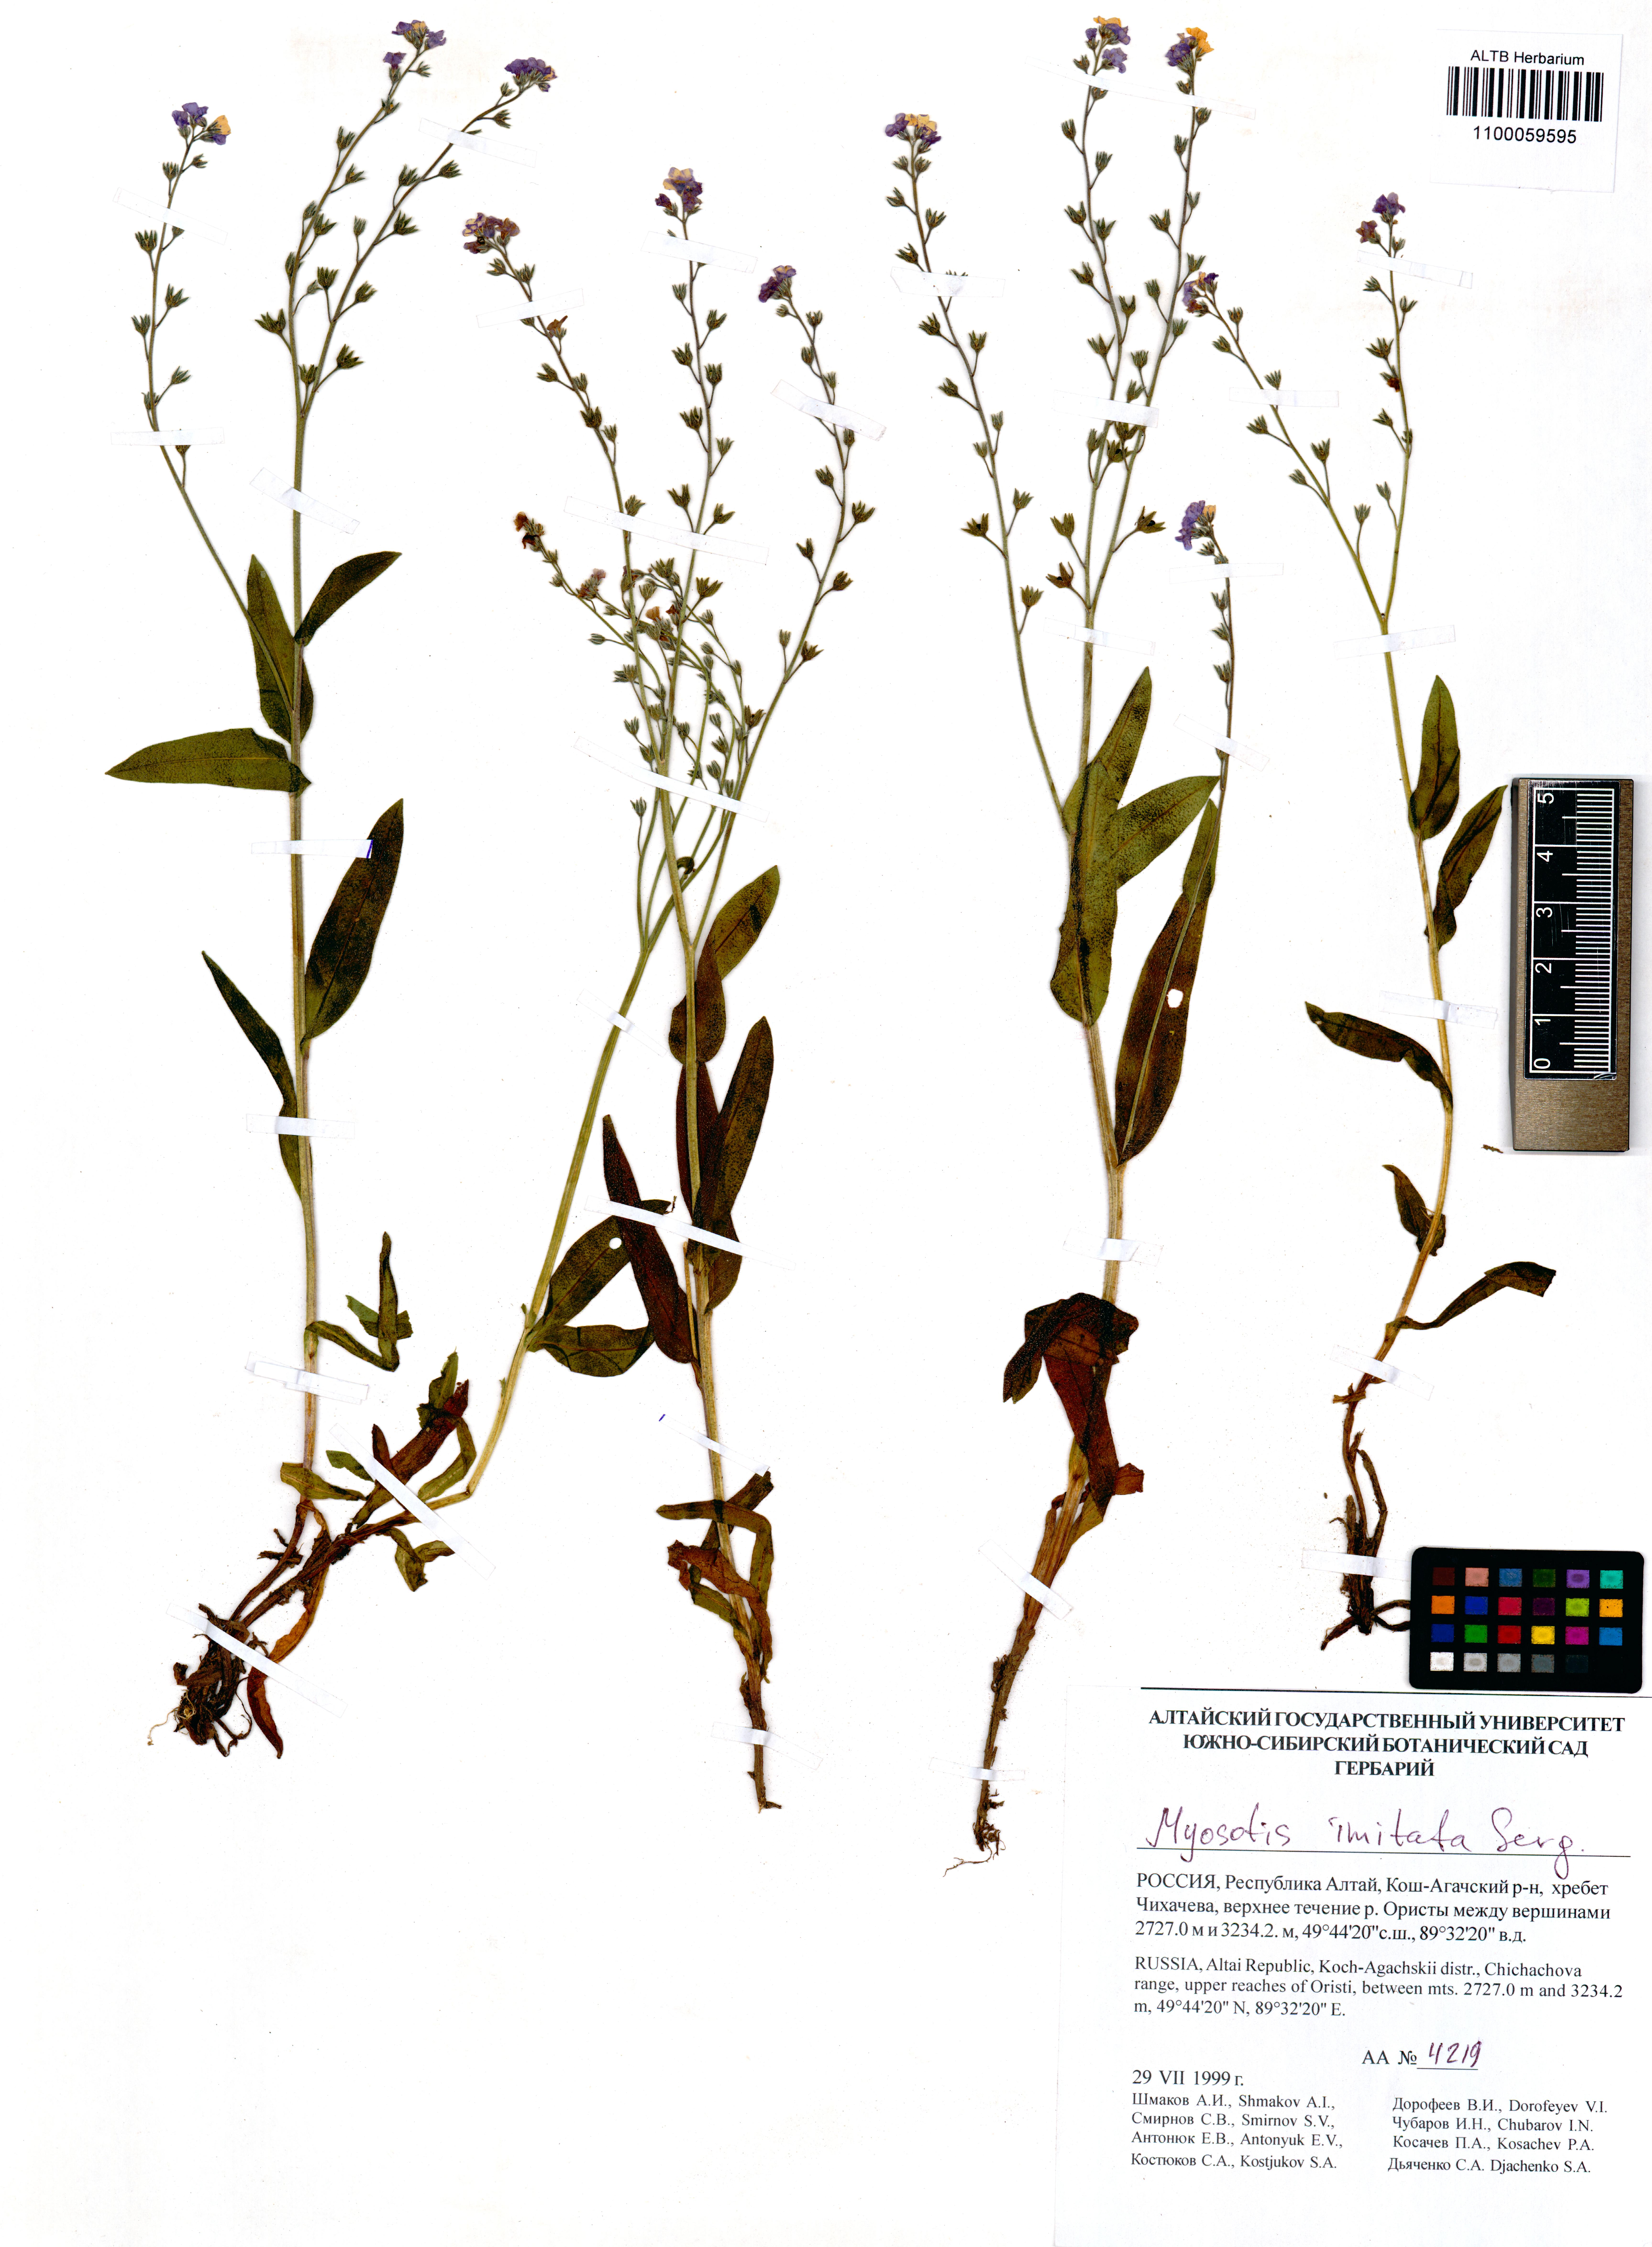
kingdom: Plantae
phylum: Tracheophyta
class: Magnoliopsida
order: Boraginales
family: Boraginaceae
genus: Myosotis
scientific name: Myosotis imitata
